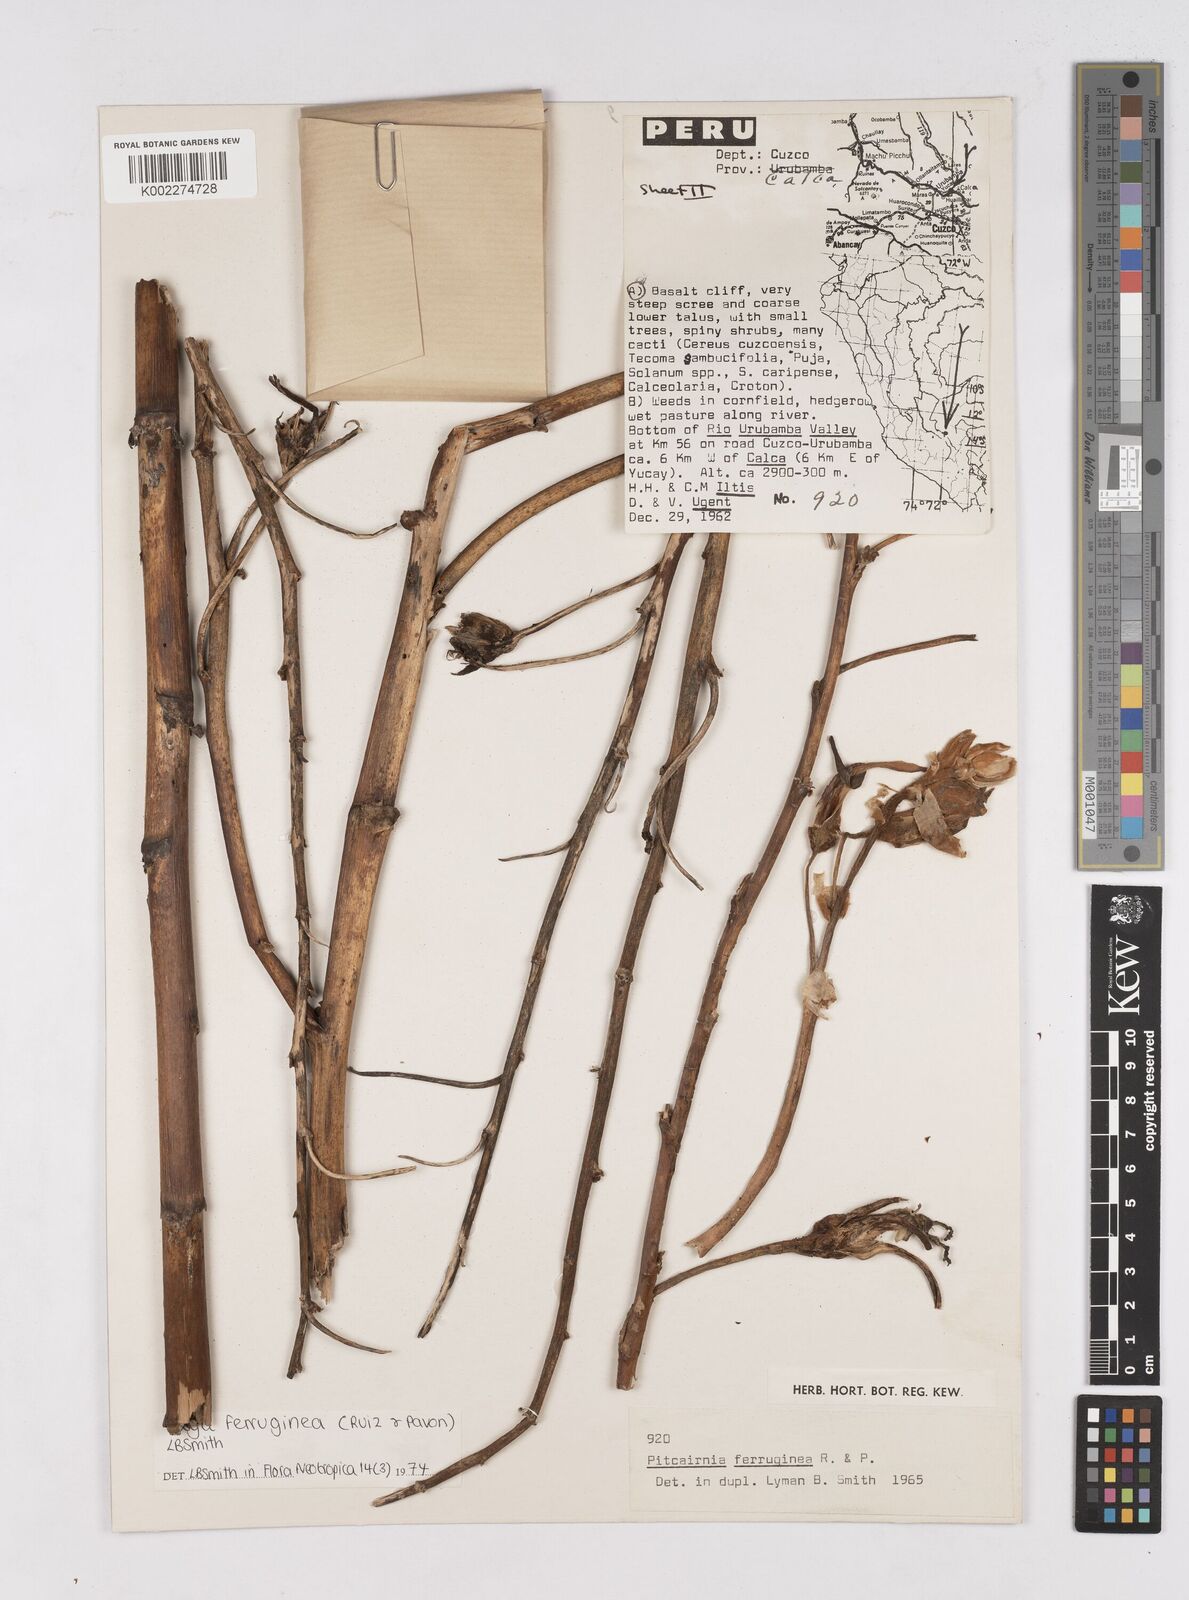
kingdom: Plantae
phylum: Tracheophyta
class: Liliopsida
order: Poales
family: Bromeliaceae
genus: Puya
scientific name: Puya ferruginea
